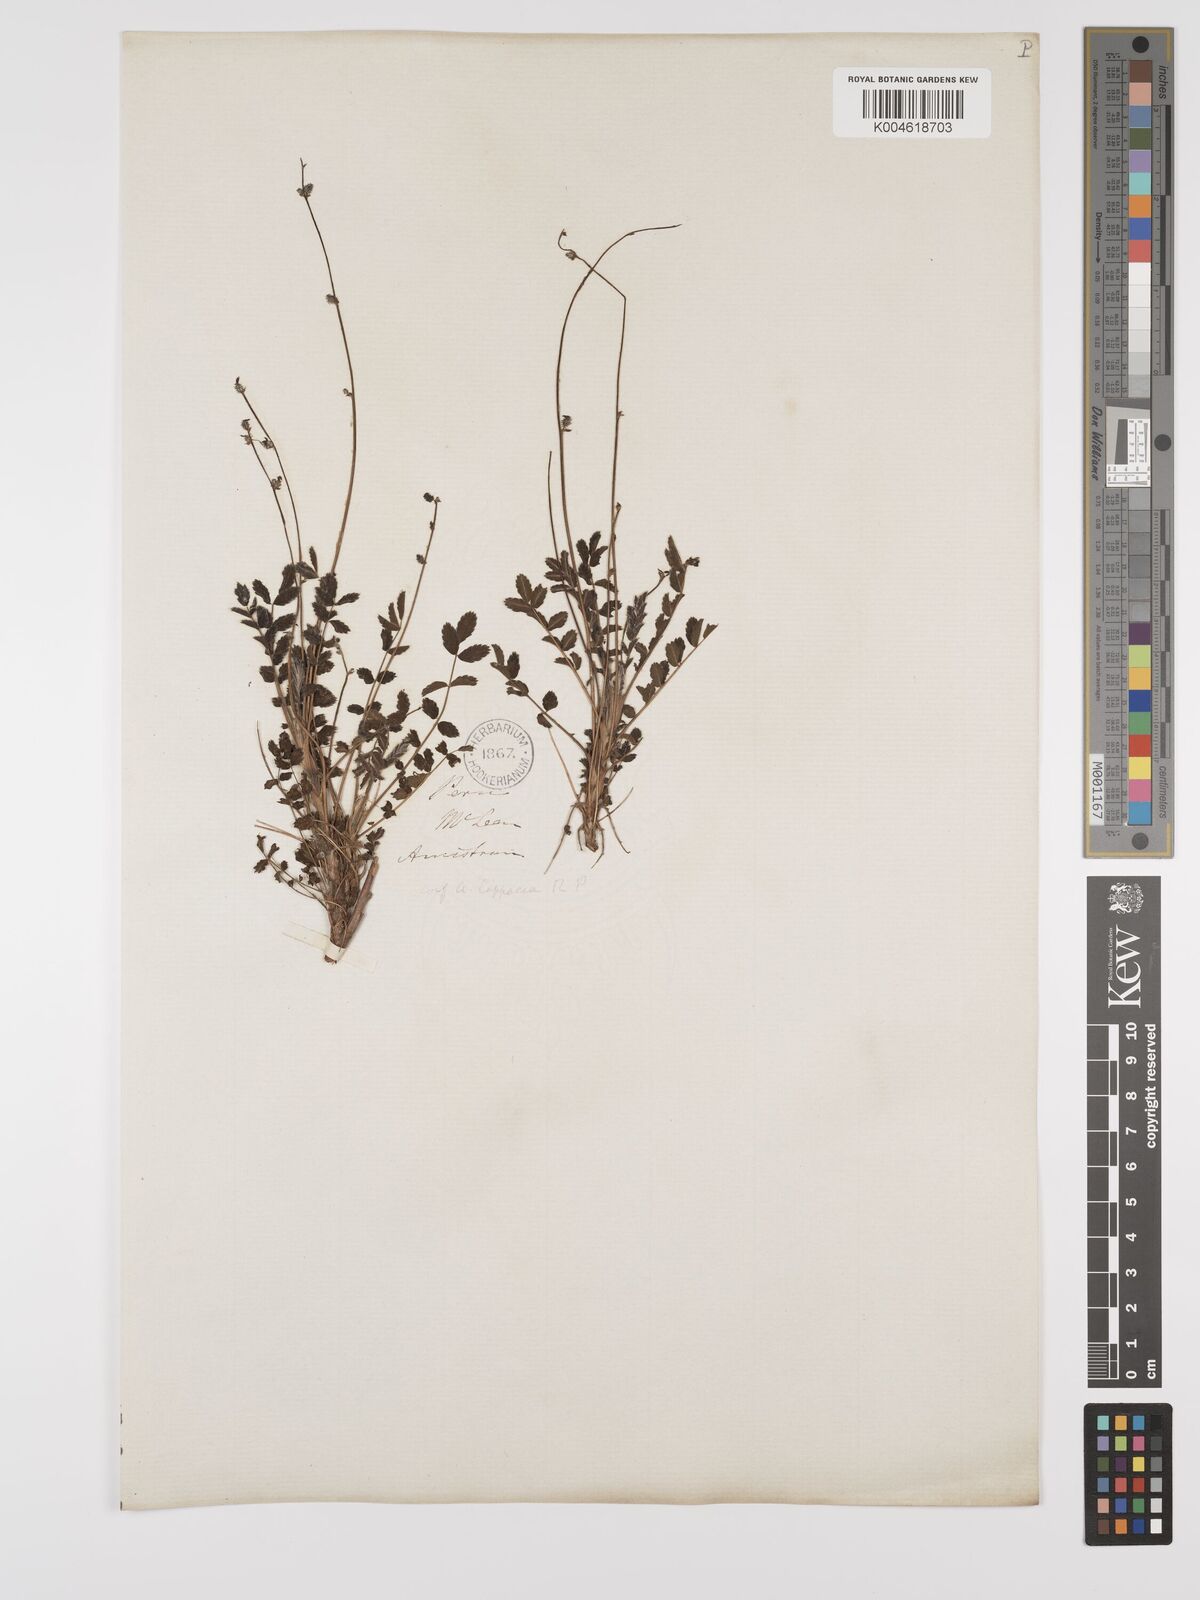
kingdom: Plantae
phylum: Tracheophyta
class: Magnoliopsida
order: Rosales
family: Rosaceae
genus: Acaena
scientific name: Acaena torilicarpa
